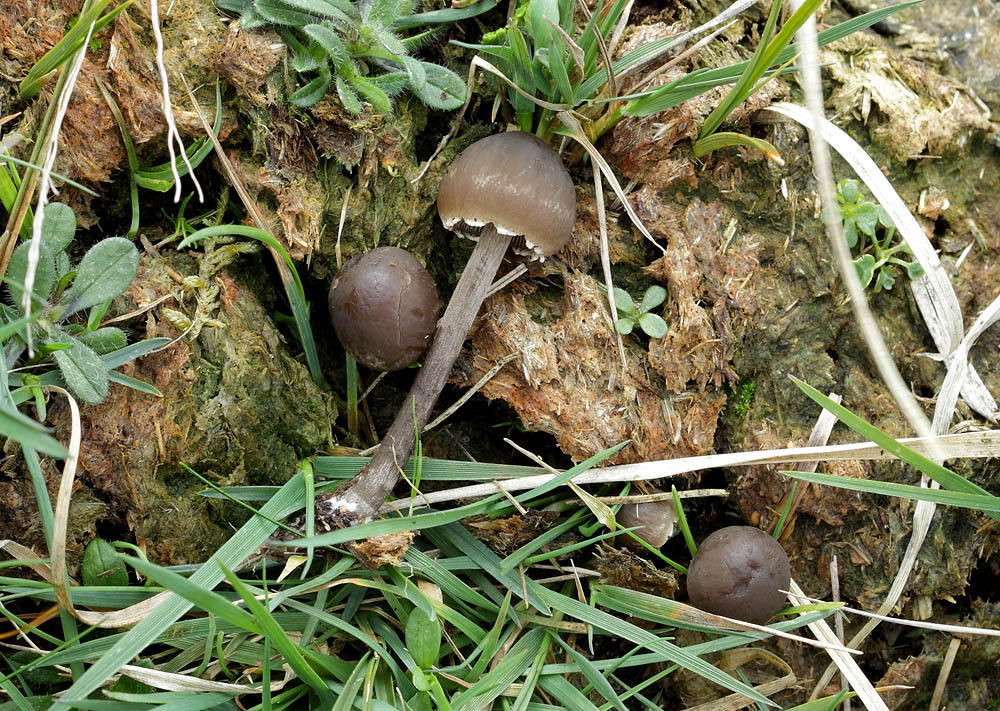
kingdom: Fungi
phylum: Basidiomycota
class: Agaricomycetes
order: Agaricales
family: Bolbitiaceae
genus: Panaeolus
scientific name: Panaeolus papilionaceus
